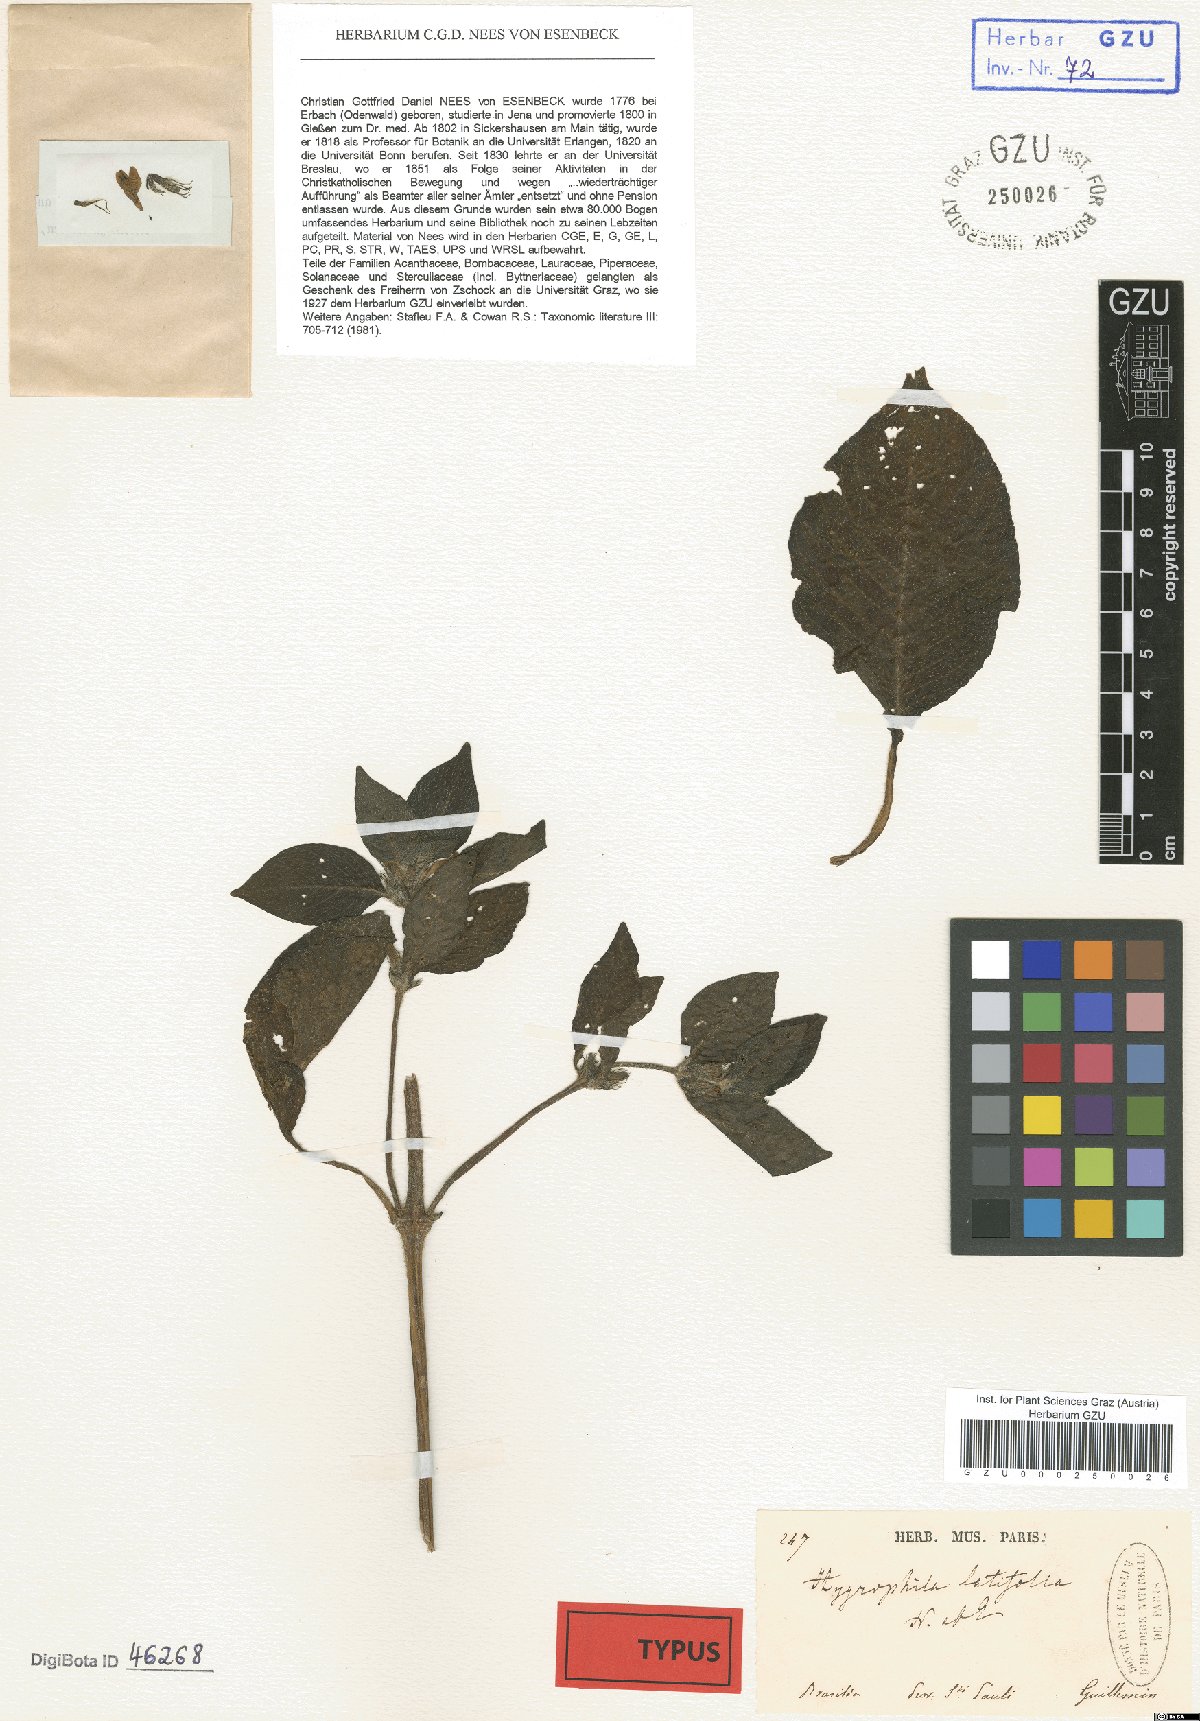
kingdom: Plantae
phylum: Tracheophyta
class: Magnoliopsida
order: Lamiales
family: Acanthaceae
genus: Hygrophila
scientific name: Hygrophila costata
